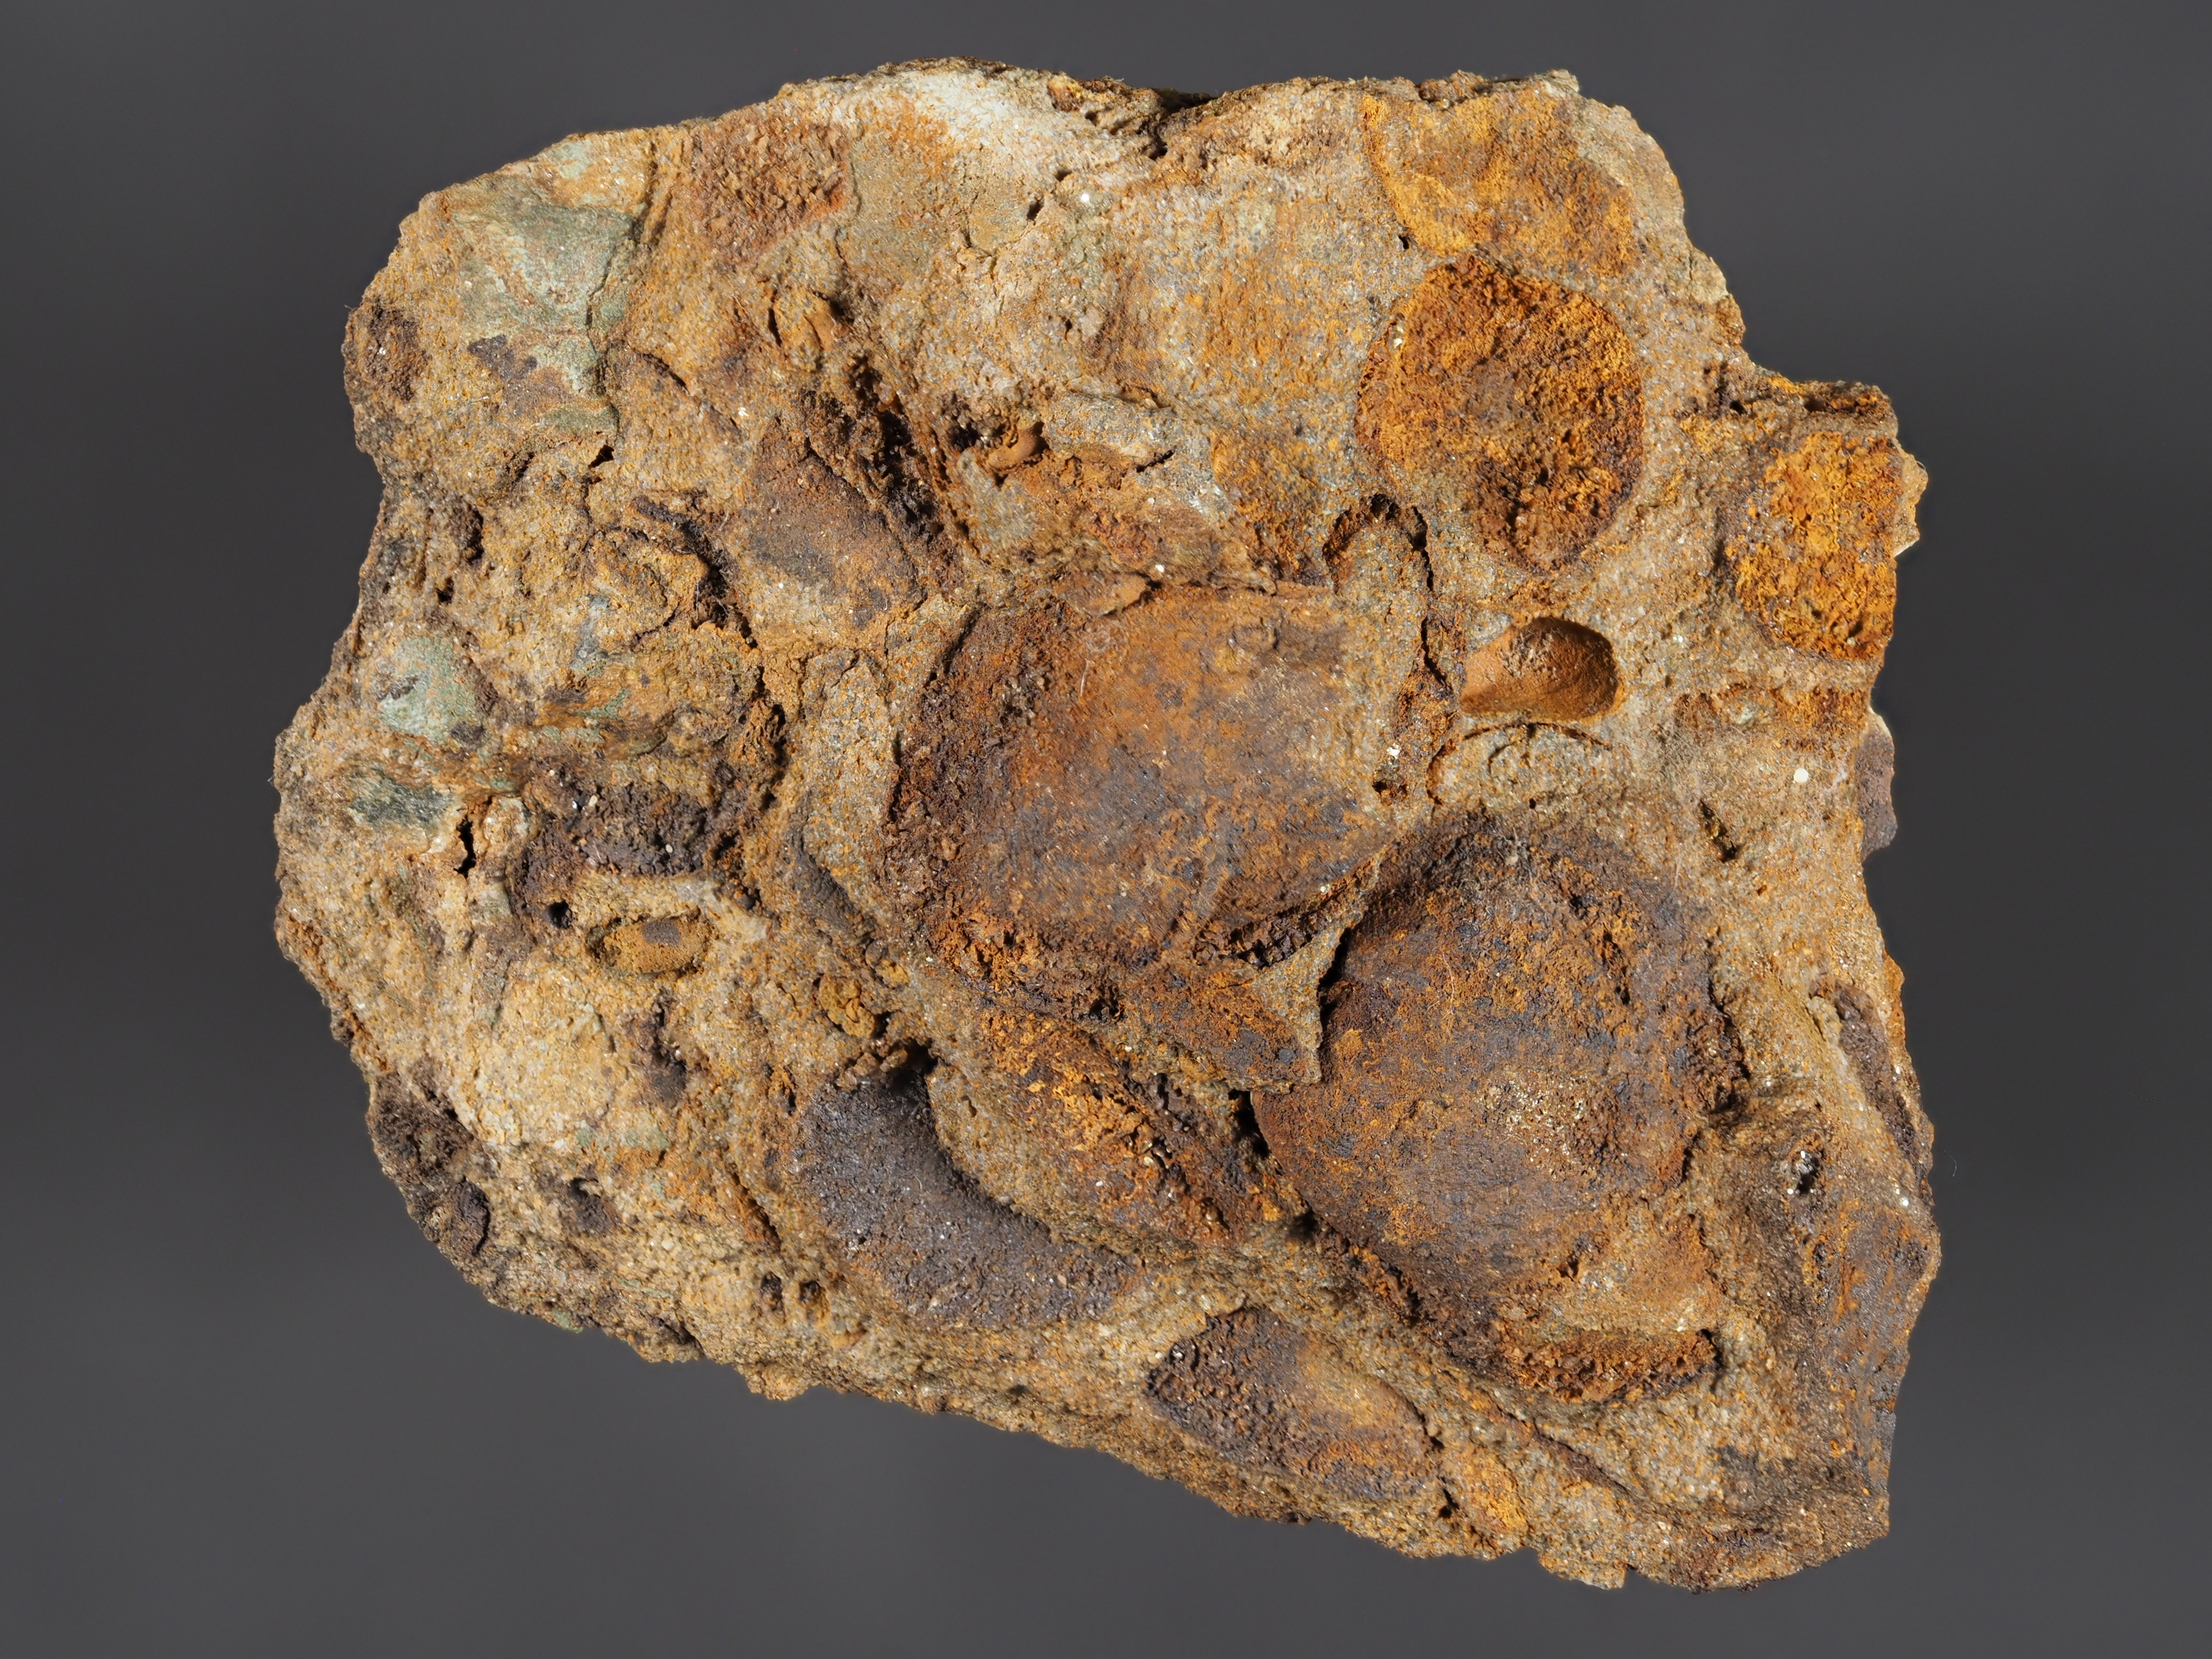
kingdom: Animalia
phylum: Mollusca
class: Bivalvia
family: Carydiidae
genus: Carydium
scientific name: Carydium
